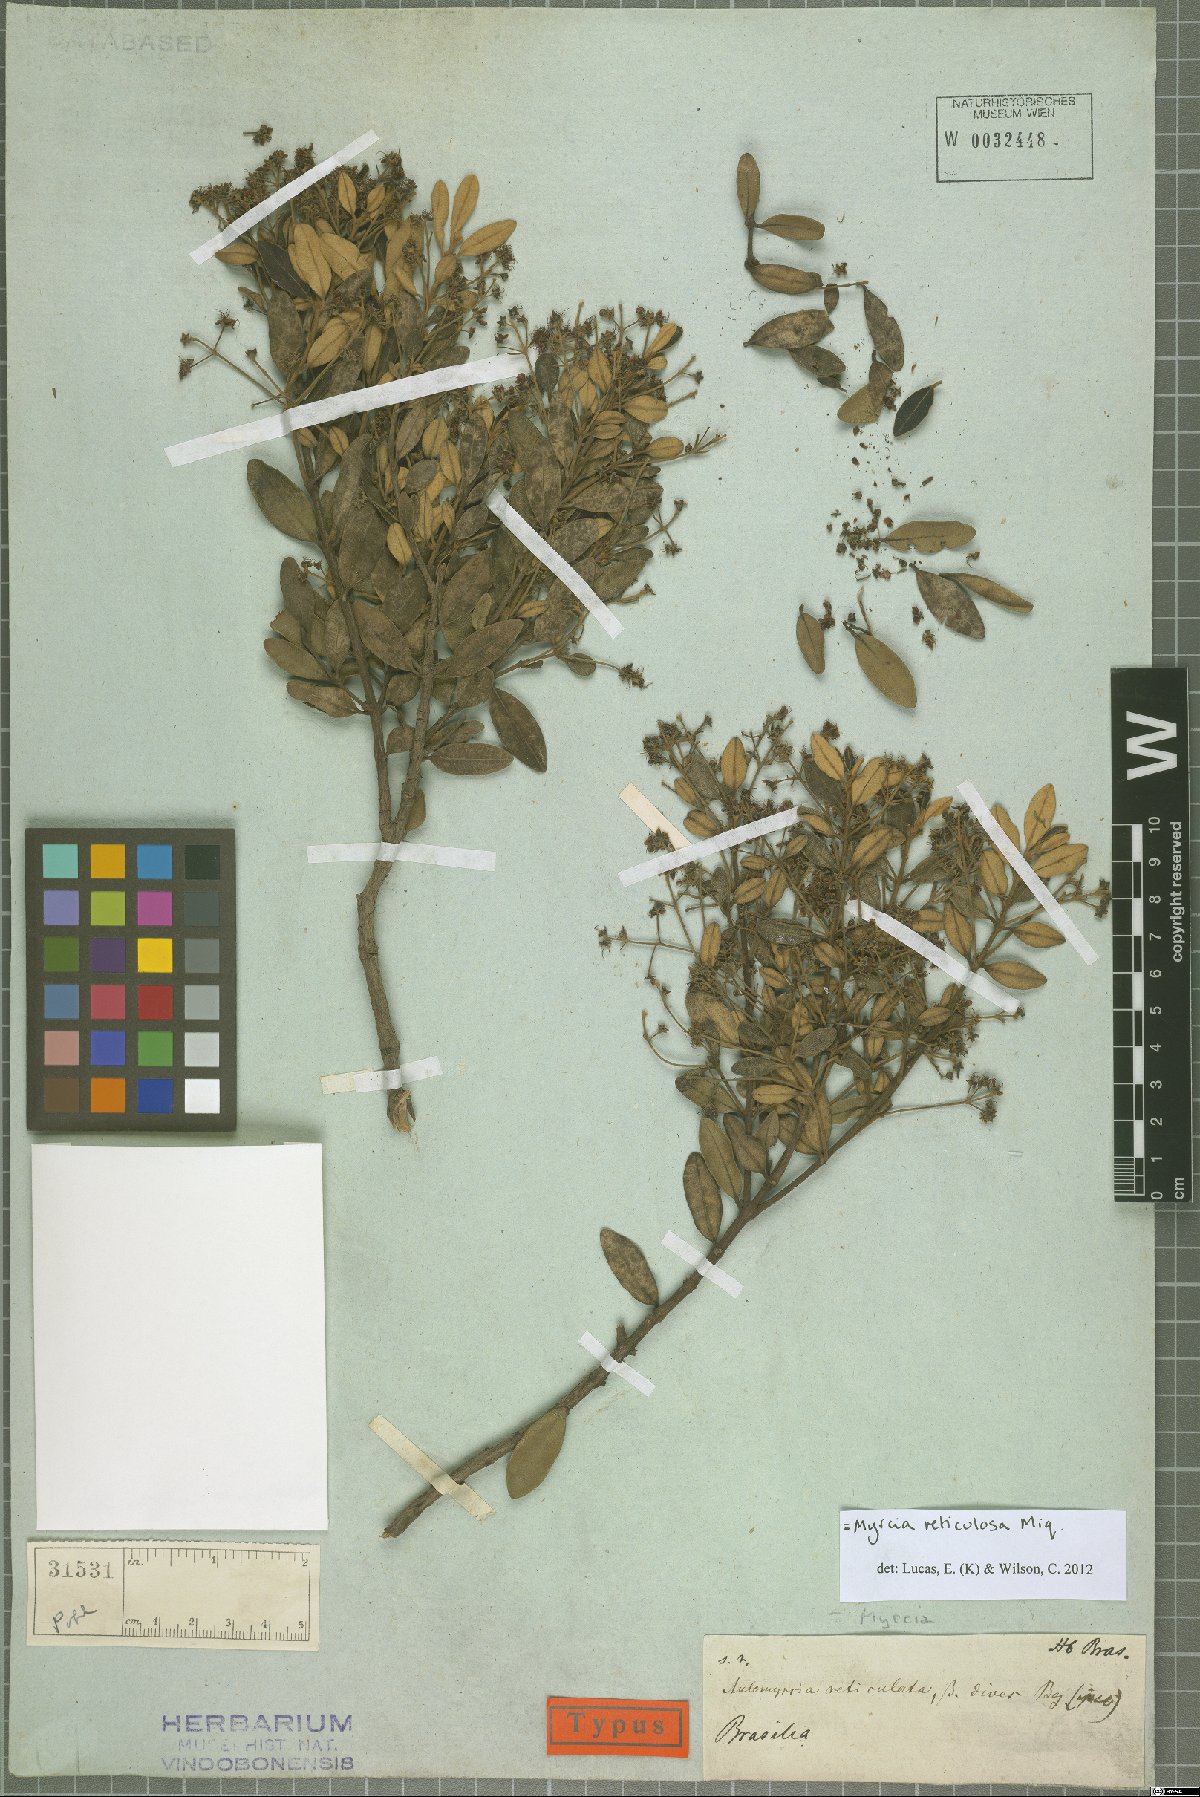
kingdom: Plantae
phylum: Tracheophyta
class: Magnoliopsida
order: Myrtales
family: Myrtaceae
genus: Myrcia
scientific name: Myrcia reticulosa
